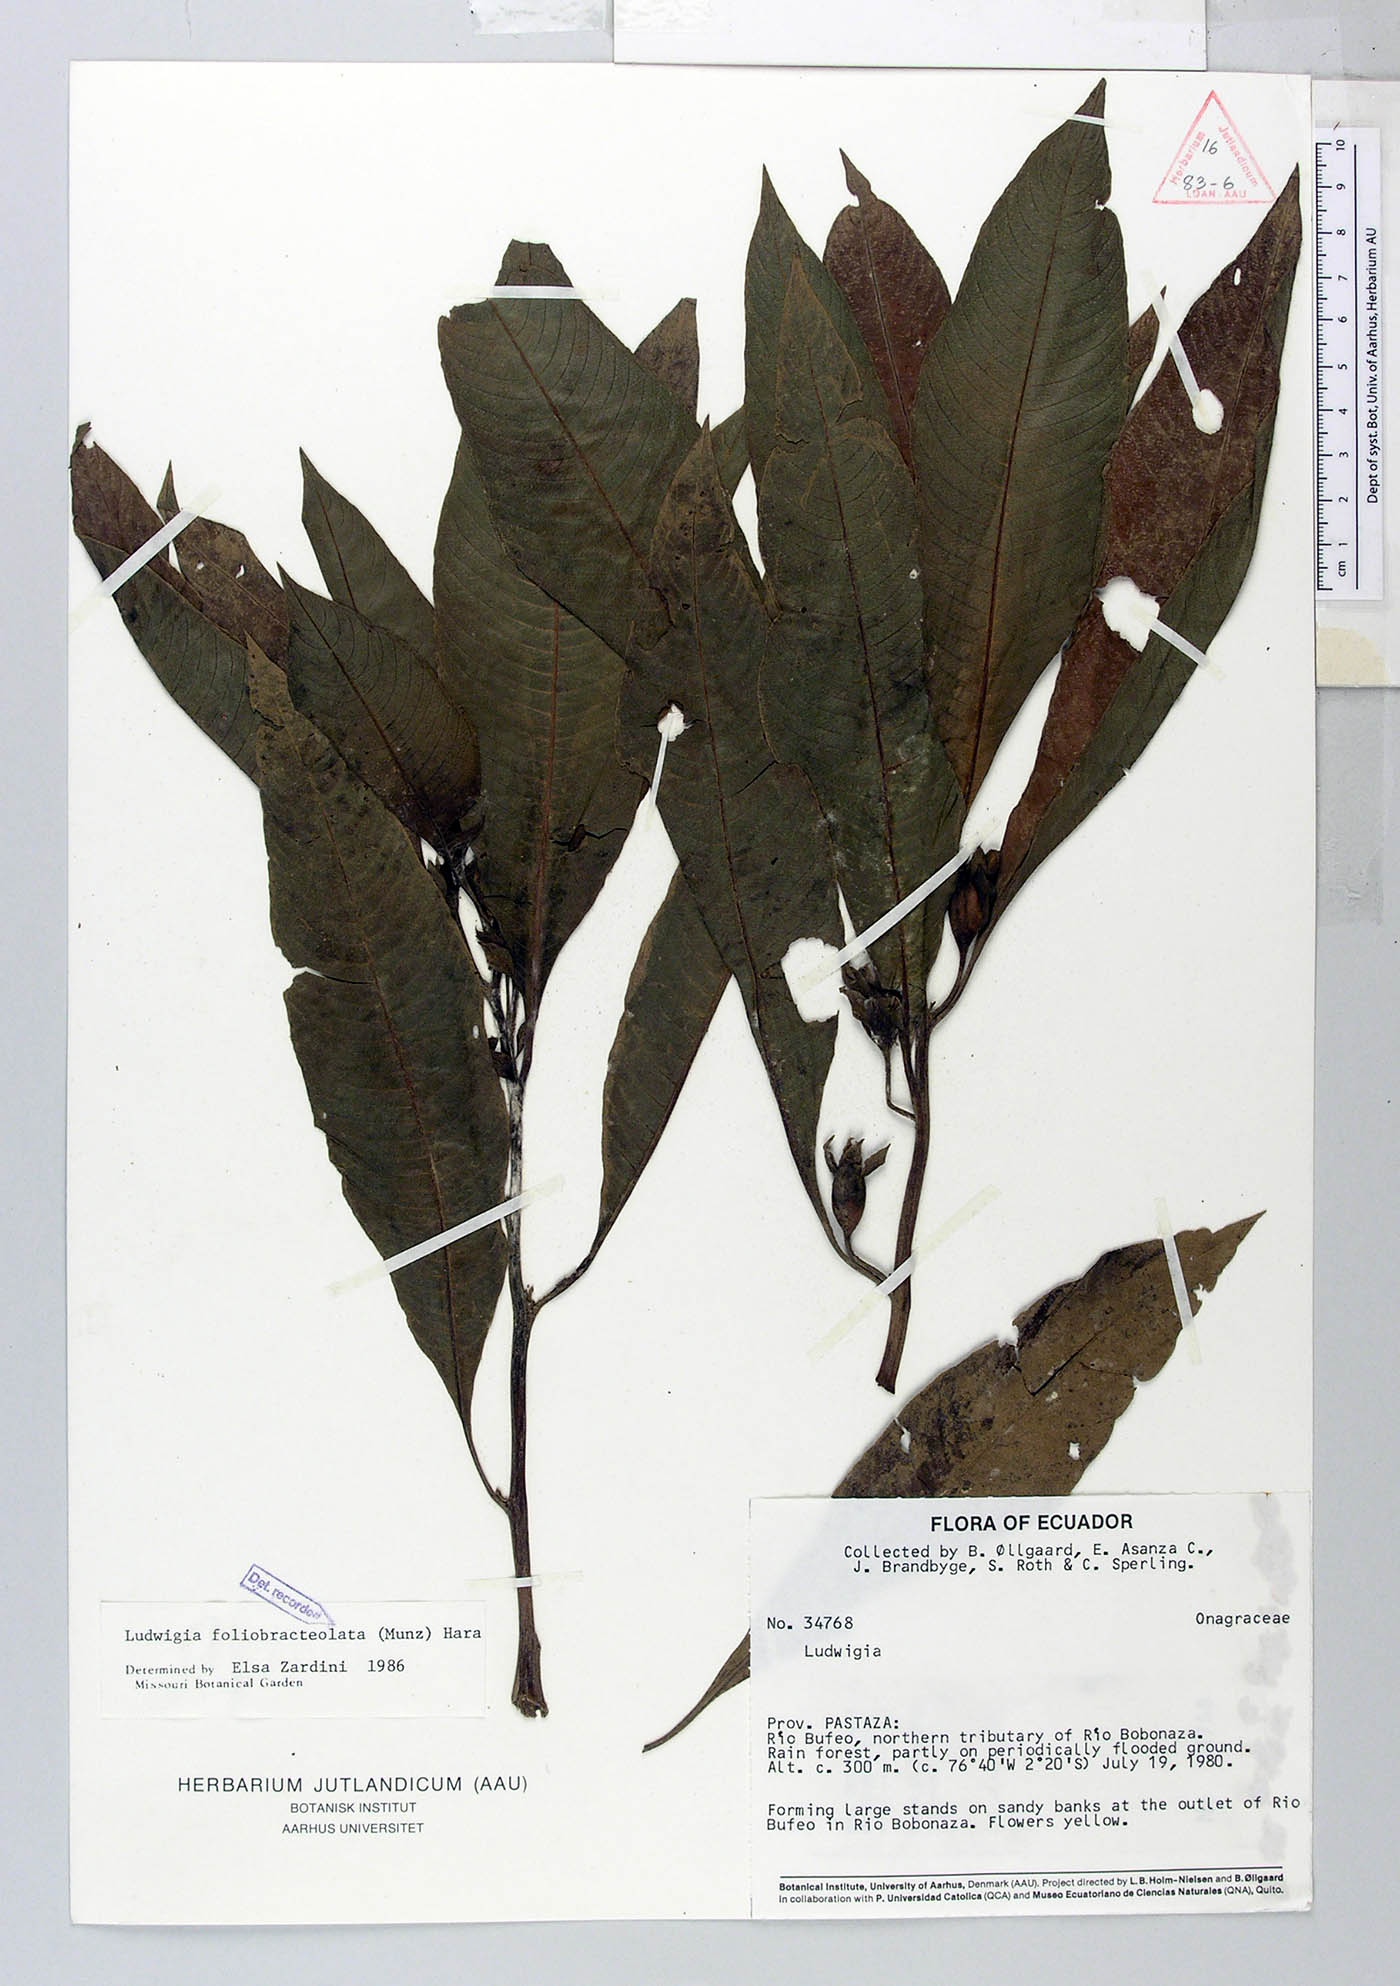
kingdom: Plantae
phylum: Tracheophyta
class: Magnoliopsida
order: Myrtales
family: Onagraceae
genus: Ludwigia
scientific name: Ludwigia foliobracteolata
